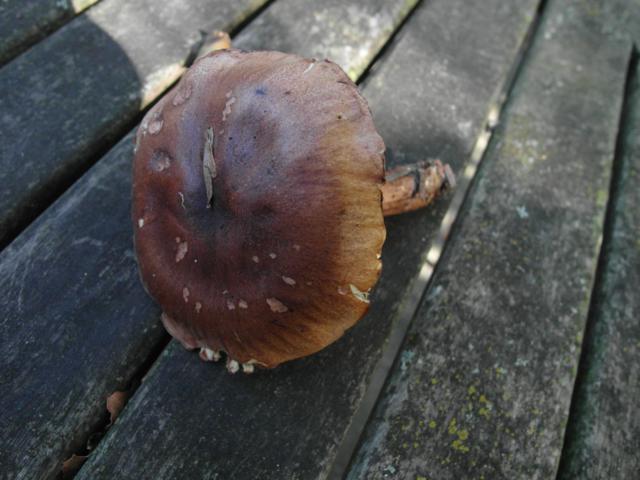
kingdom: Fungi
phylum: Basidiomycota
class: Agaricomycetes
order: Agaricales
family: Tricholomataceae
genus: Tricholoma
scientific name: Tricholoma fulvum
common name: birke-ridderhat
